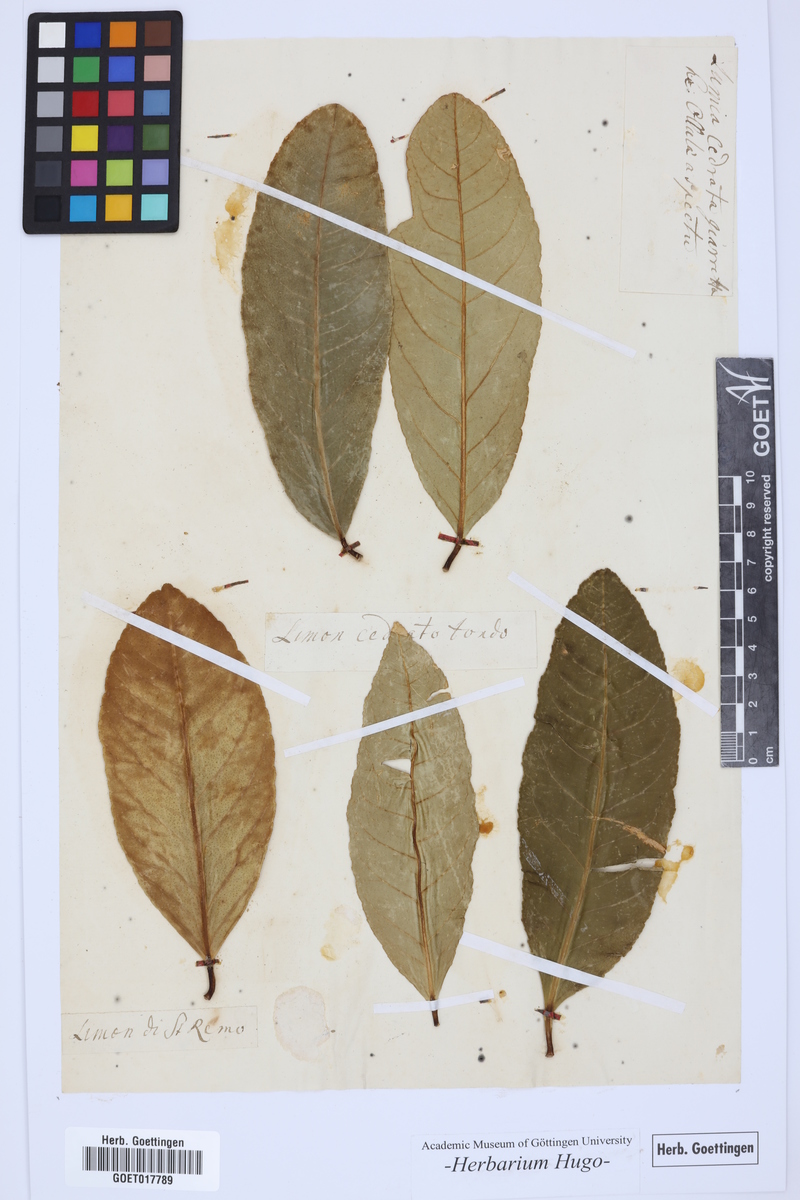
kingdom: Plantae
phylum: Tracheophyta
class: Magnoliopsida
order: Sapindales
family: Rutaceae
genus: Citrus
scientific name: Citrus
